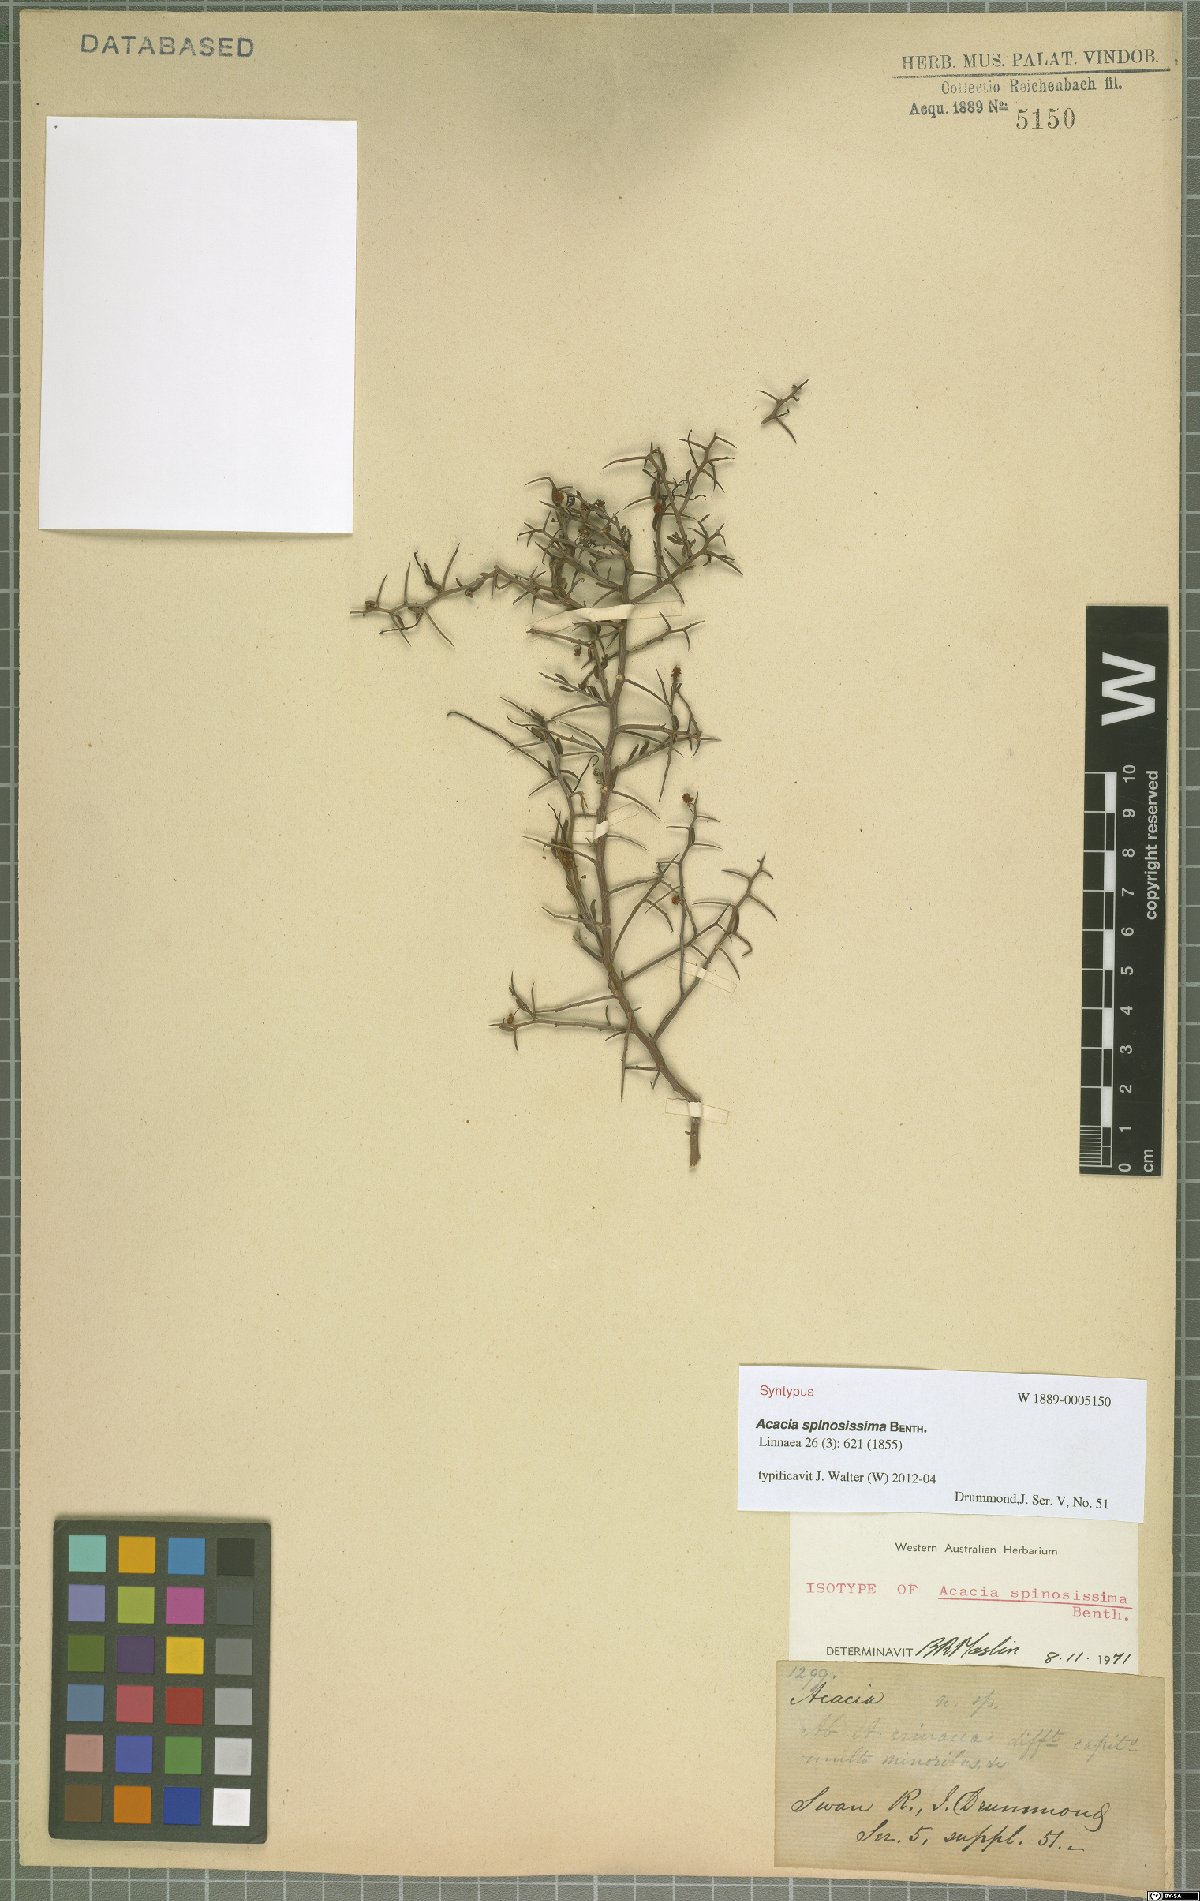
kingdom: Plantae
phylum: Tracheophyta
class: Magnoliopsida
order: Fabales
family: Fabaceae
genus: Acacia
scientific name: Acacia spinosissima
